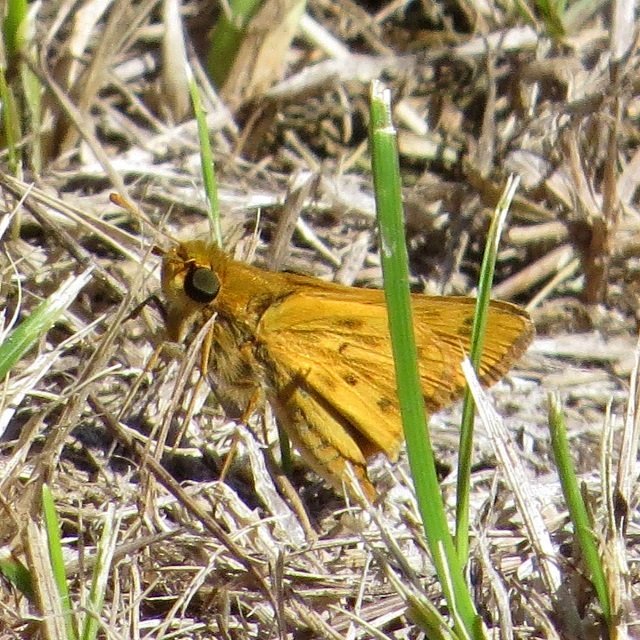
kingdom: Animalia
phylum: Arthropoda
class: Insecta
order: Lepidoptera
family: Hesperiidae
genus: Hylephila
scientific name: Hylephila phyleus
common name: Fiery Skipper
